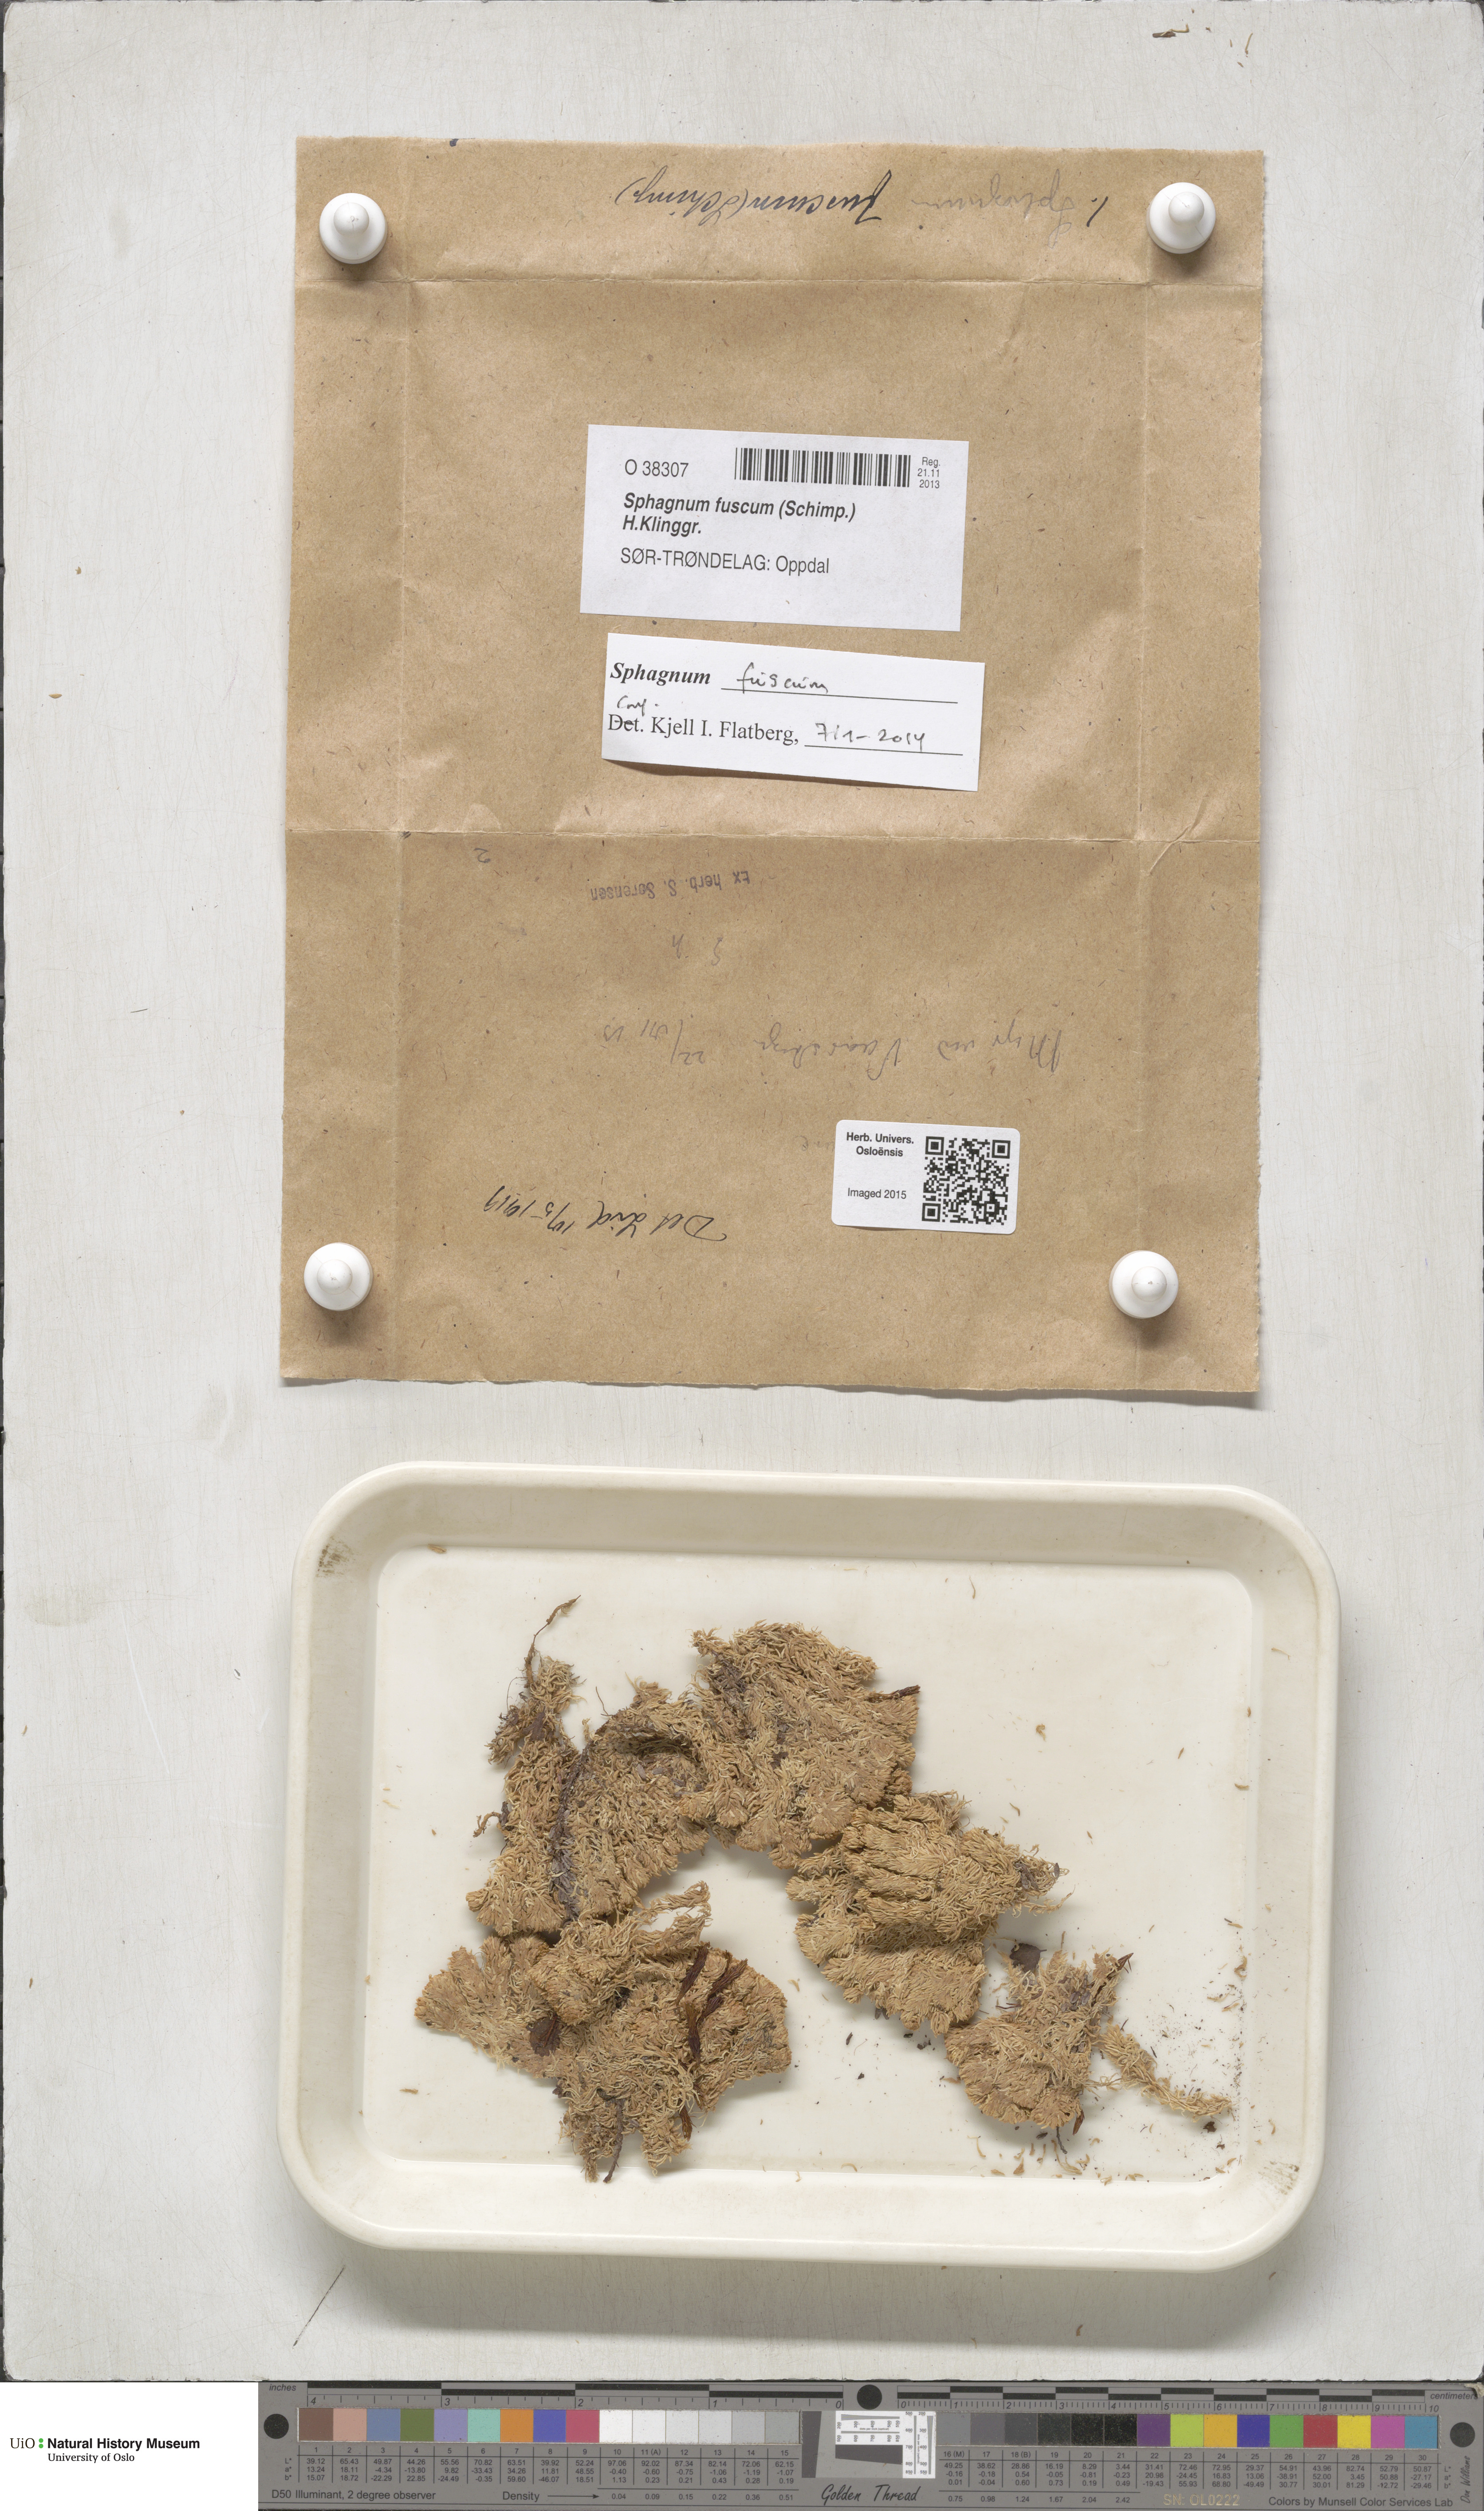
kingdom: Plantae
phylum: Bryophyta
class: Sphagnopsida
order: Sphagnales
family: Sphagnaceae
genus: Sphagnum
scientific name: Sphagnum fuscum
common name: Brown peat moss
